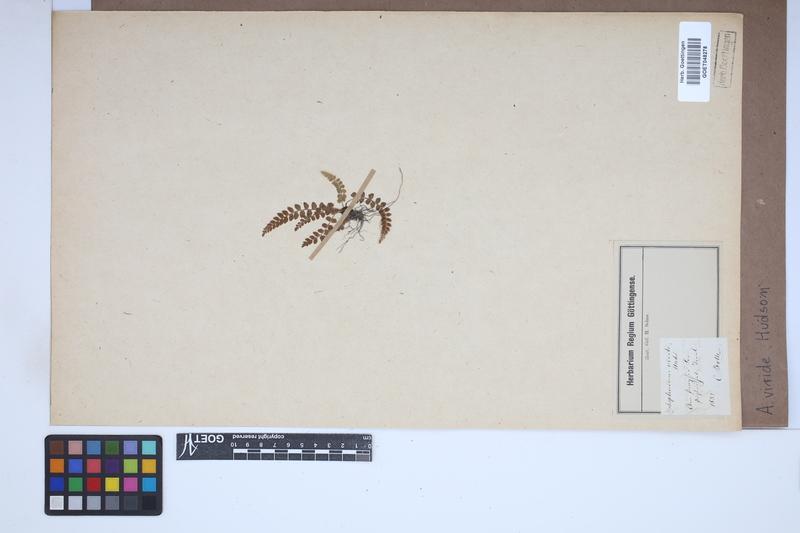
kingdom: Plantae
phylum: Tracheophyta
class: Polypodiopsida
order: Polypodiales
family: Aspleniaceae
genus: Asplenium
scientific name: Asplenium viride
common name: Green spleenwort
